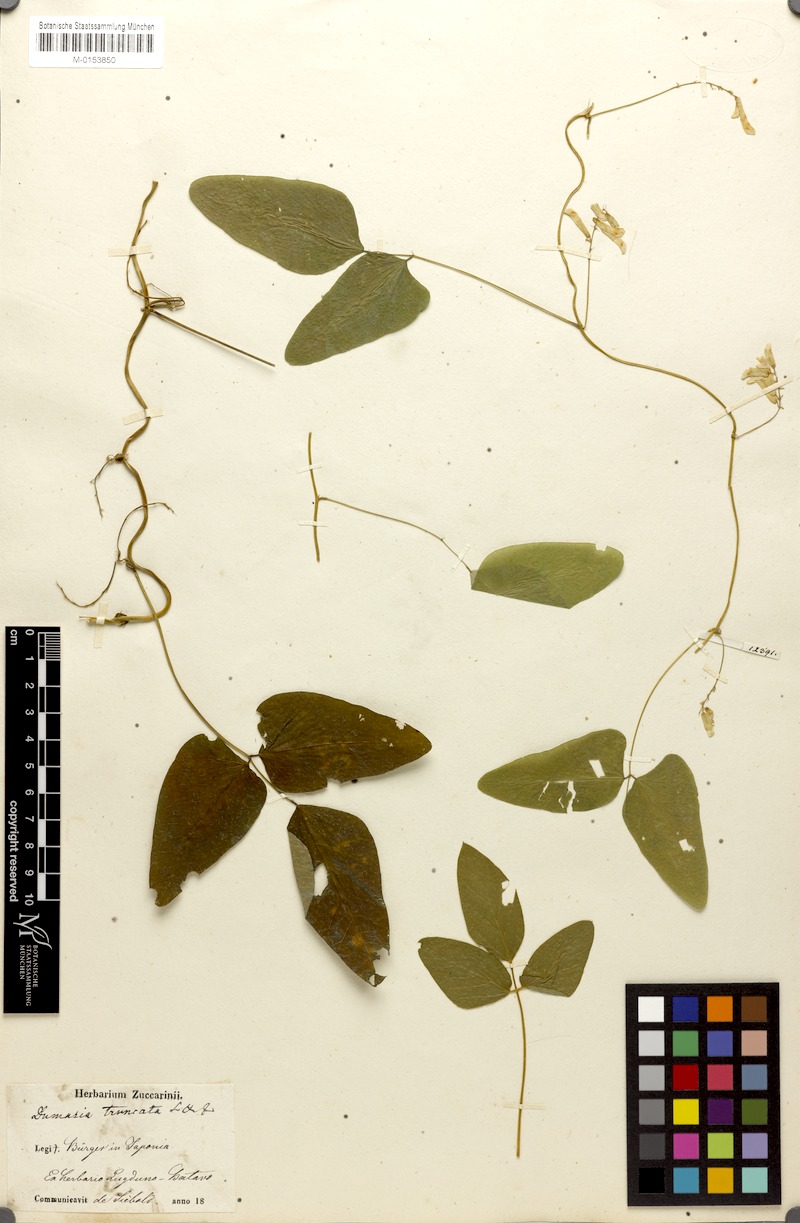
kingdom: Plantae
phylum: Tracheophyta
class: Magnoliopsida
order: Fabales
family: Fabaceae
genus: Dumasia
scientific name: Dumasia truncata
